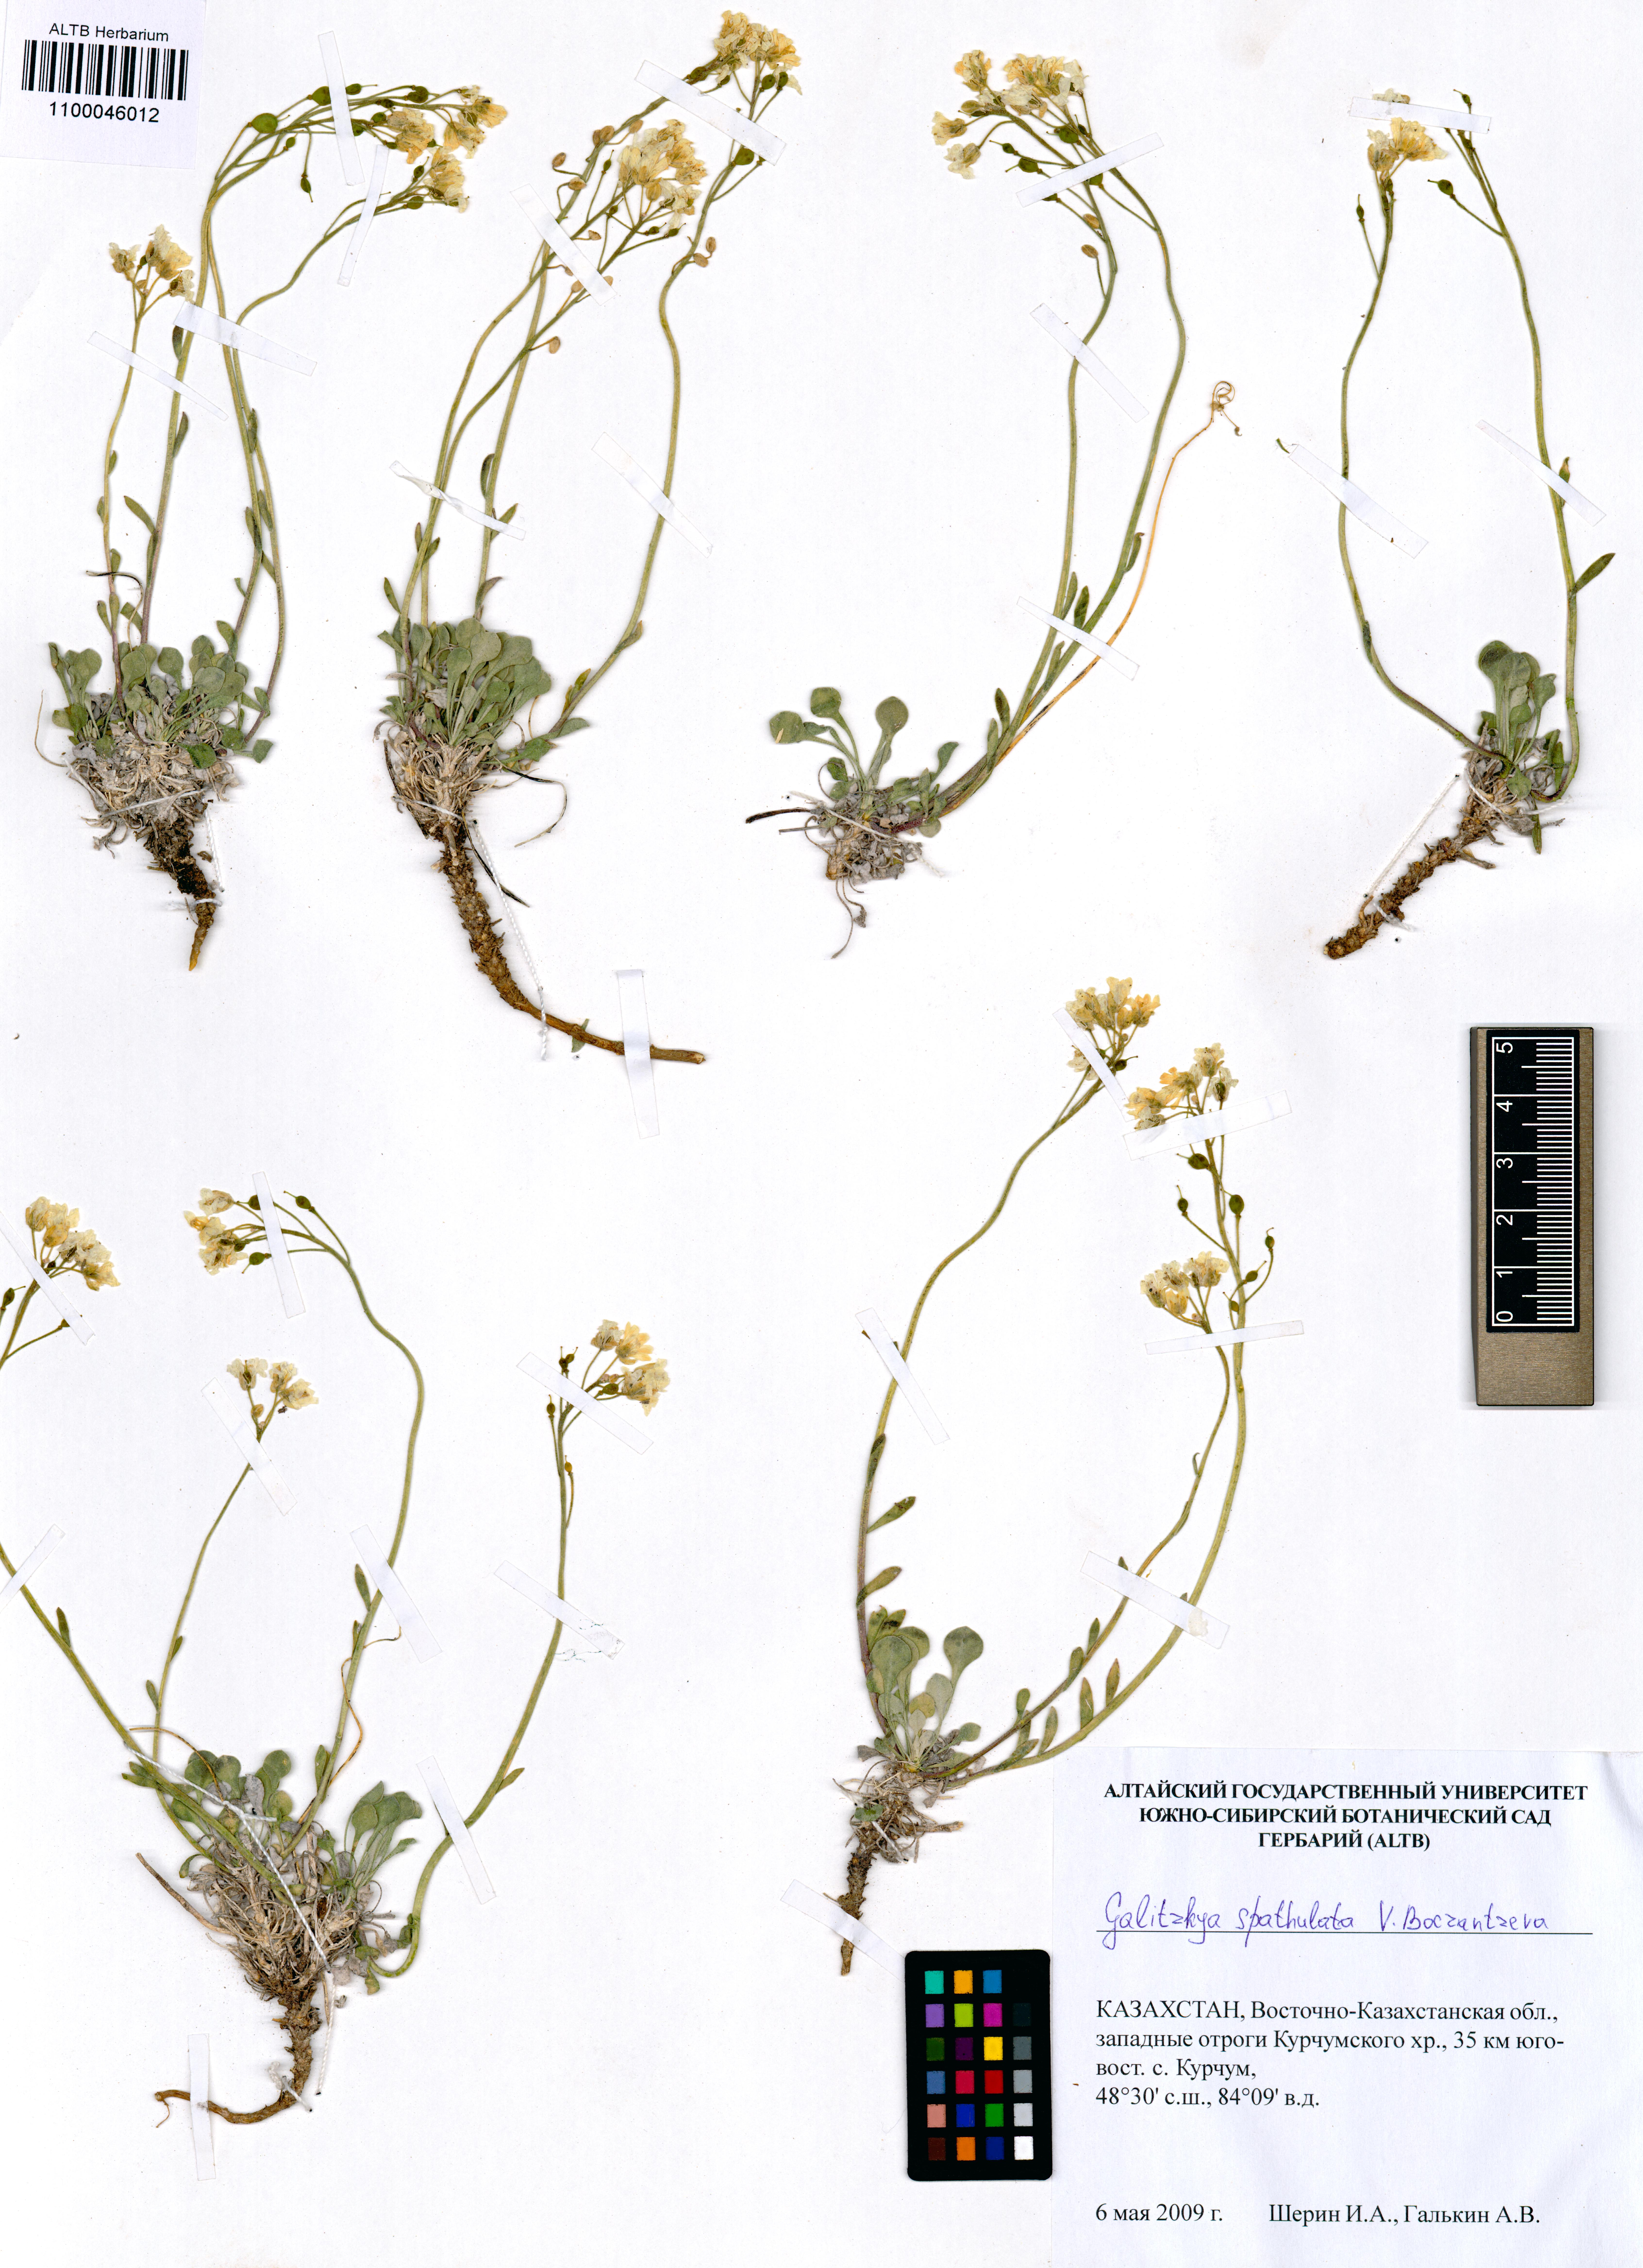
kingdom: Plantae
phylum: Tracheophyta
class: Magnoliopsida
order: Brassicales
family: Brassicaceae
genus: Galitzkya
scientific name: Galitzkya spathulata
